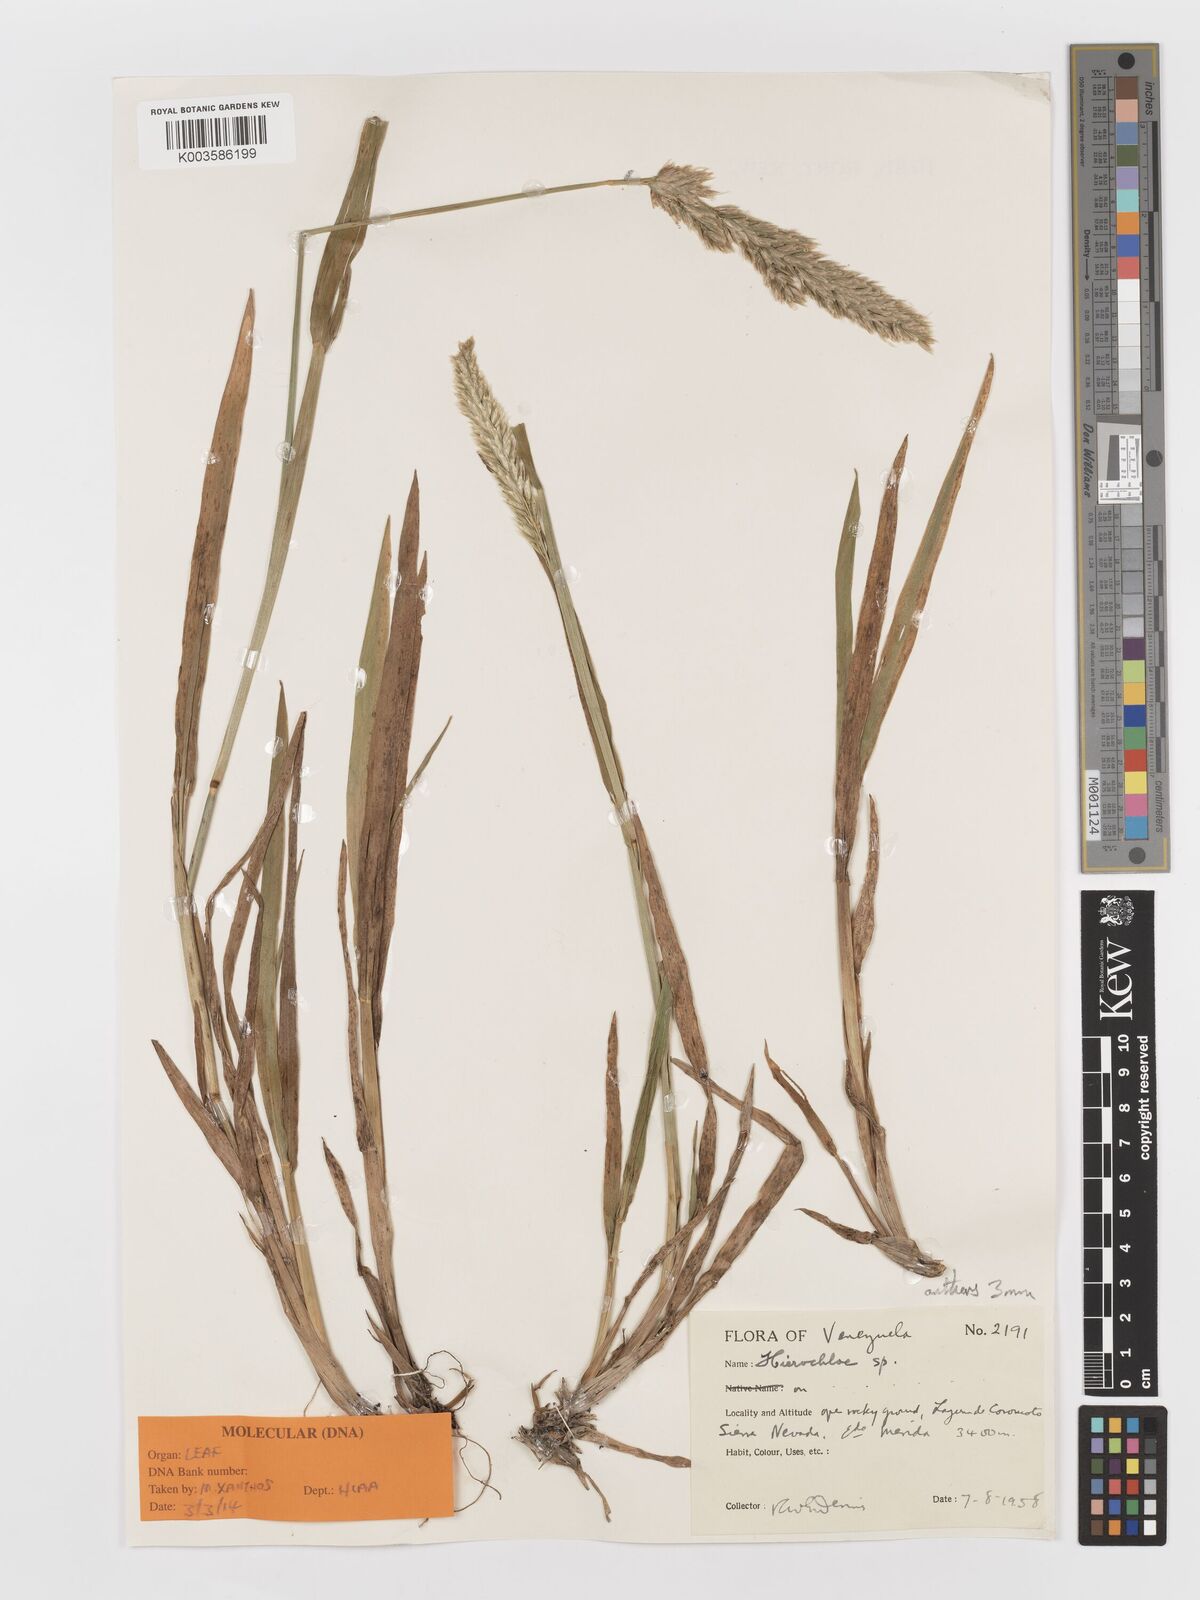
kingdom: Plantae
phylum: Tracheophyta
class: Liliopsida
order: Poales
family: Poaceae
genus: Anthoxanthum
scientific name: Anthoxanthum mexicanum
